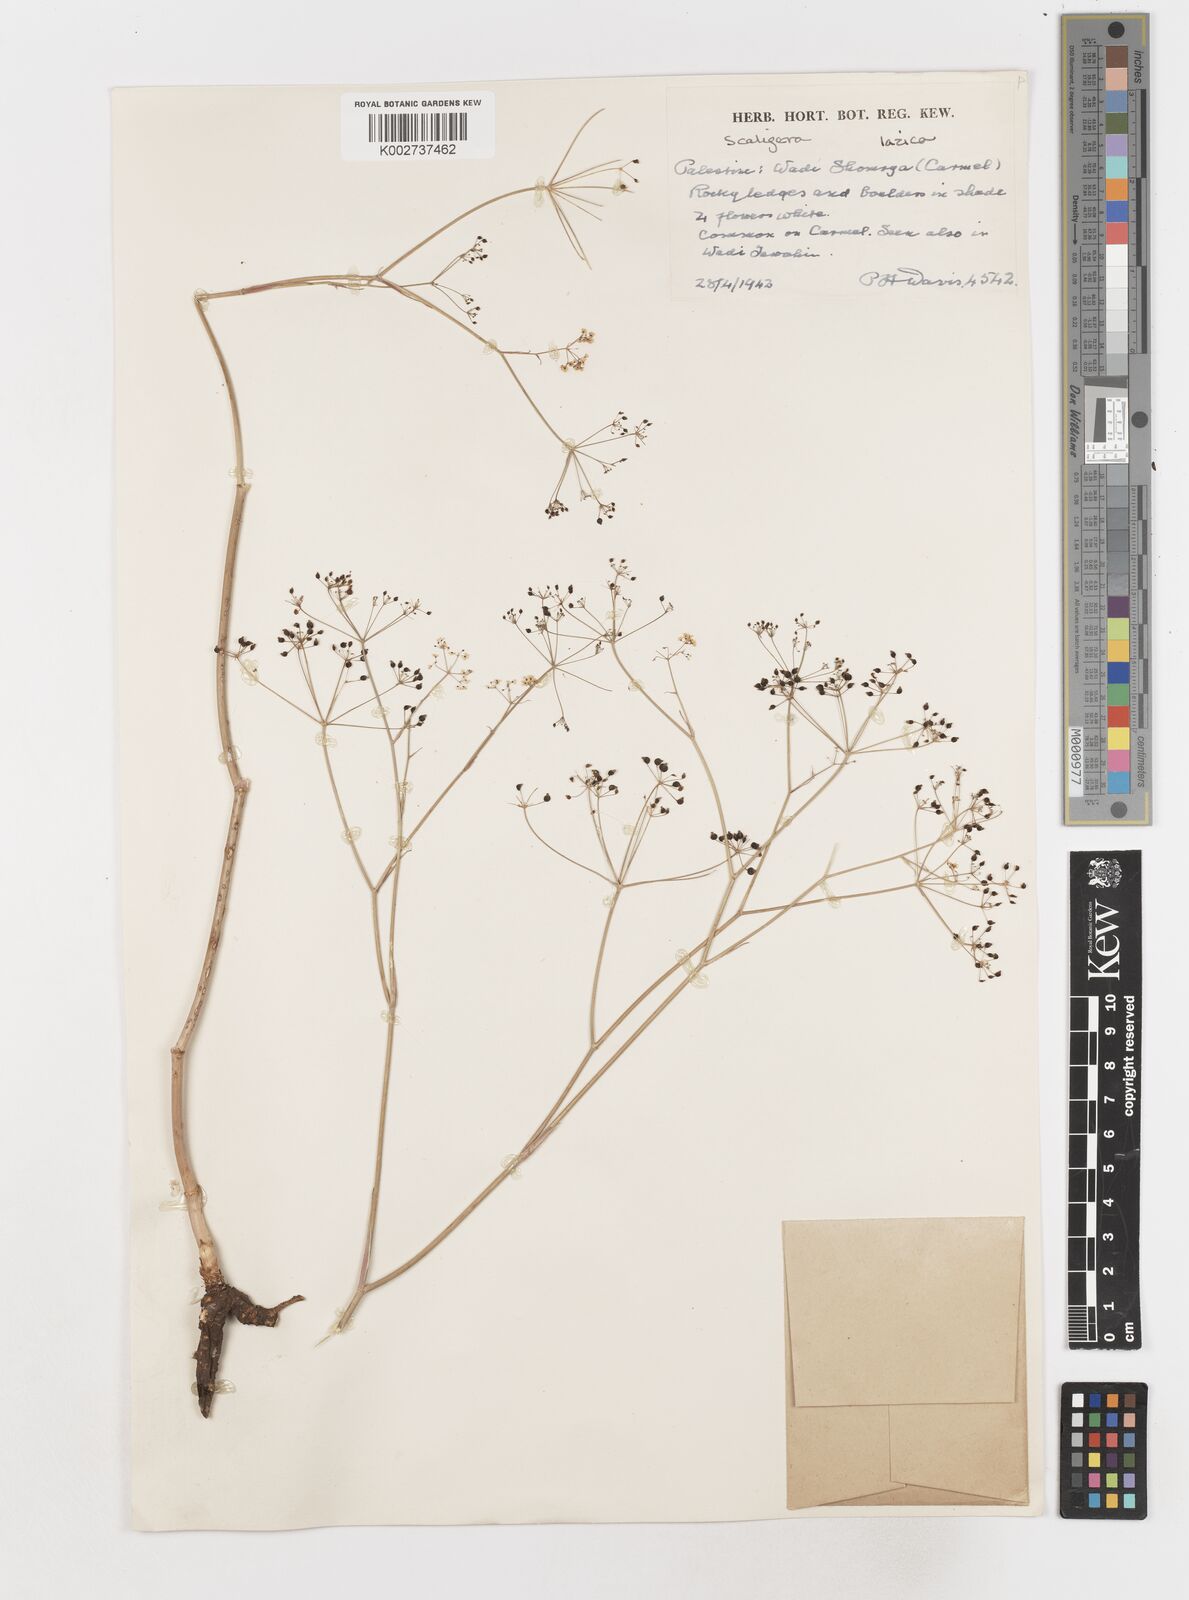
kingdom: Plantae
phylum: Tracheophyta
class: Magnoliopsida
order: Apiales
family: Apiaceae
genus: Scaligeria
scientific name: Scaligeria
